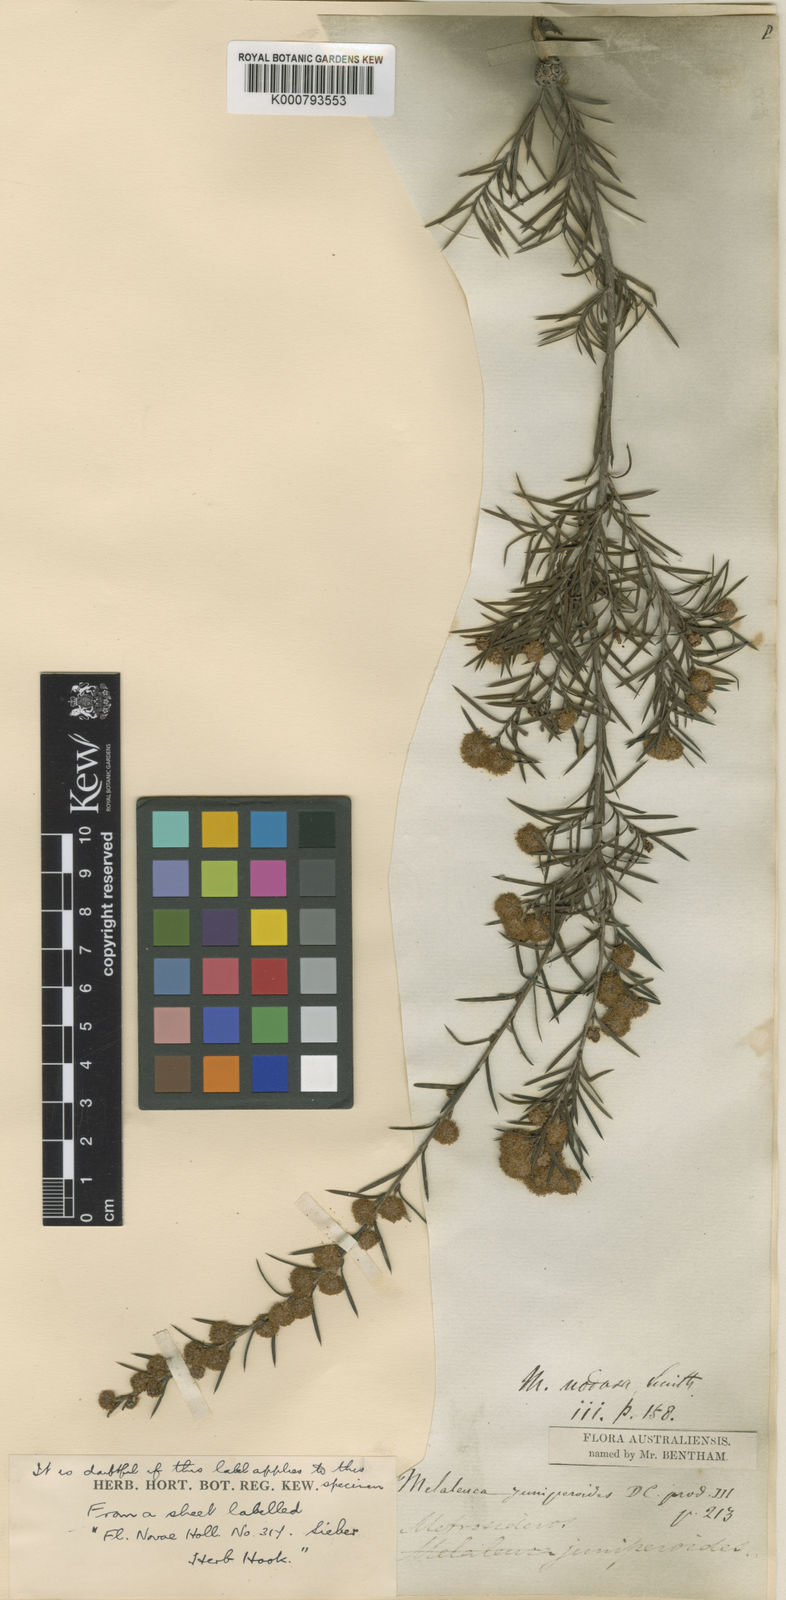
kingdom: Plantae
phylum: Tracheophyta
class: Magnoliopsida
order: Myrtales
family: Myrtaceae
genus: Melaleuca
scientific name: Melaleuca nodosa
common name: Prickly-leaf paperbark
